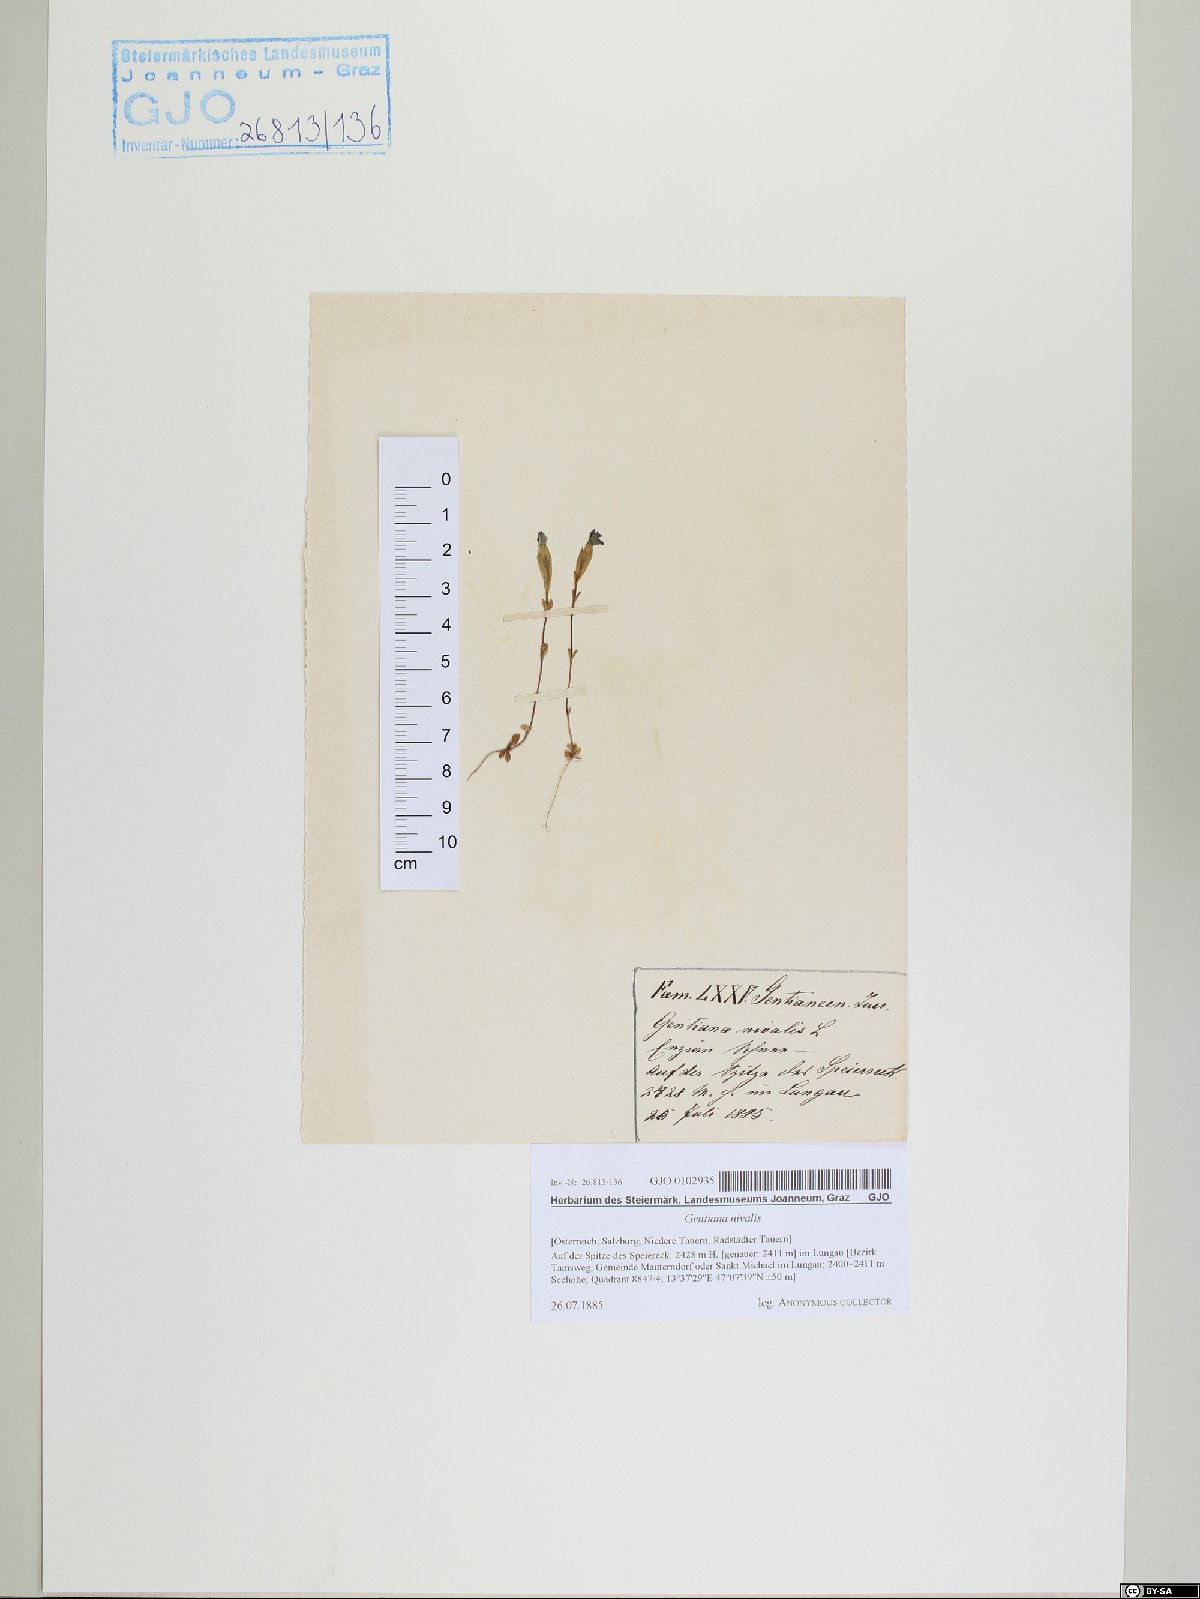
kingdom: Plantae
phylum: Tracheophyta
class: Magnoliopsida
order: Gentianales
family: Gentianaceae
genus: Gentiana
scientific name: Gentiana nivalis
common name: Alpine gentian
